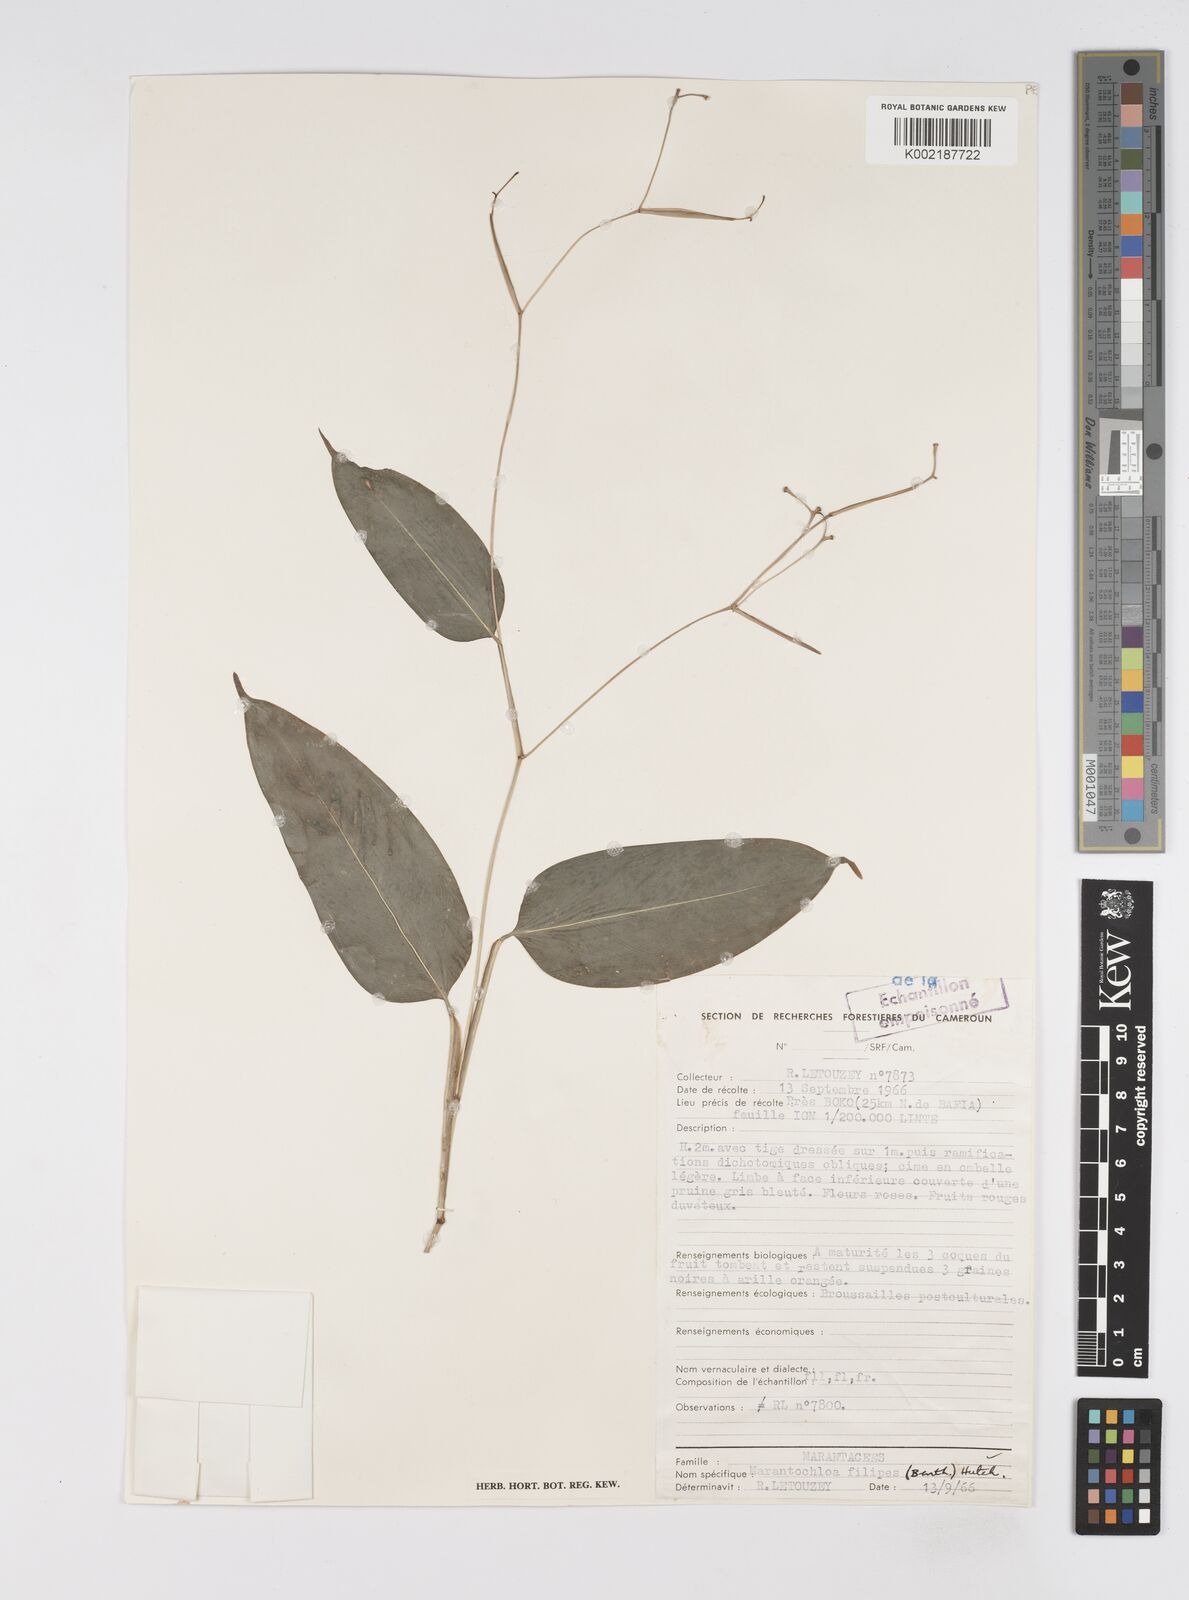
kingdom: Plantae
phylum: Tracheophyta
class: Liliopsida
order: Zingiberales
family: Marantaceae
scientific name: Marantaceae
